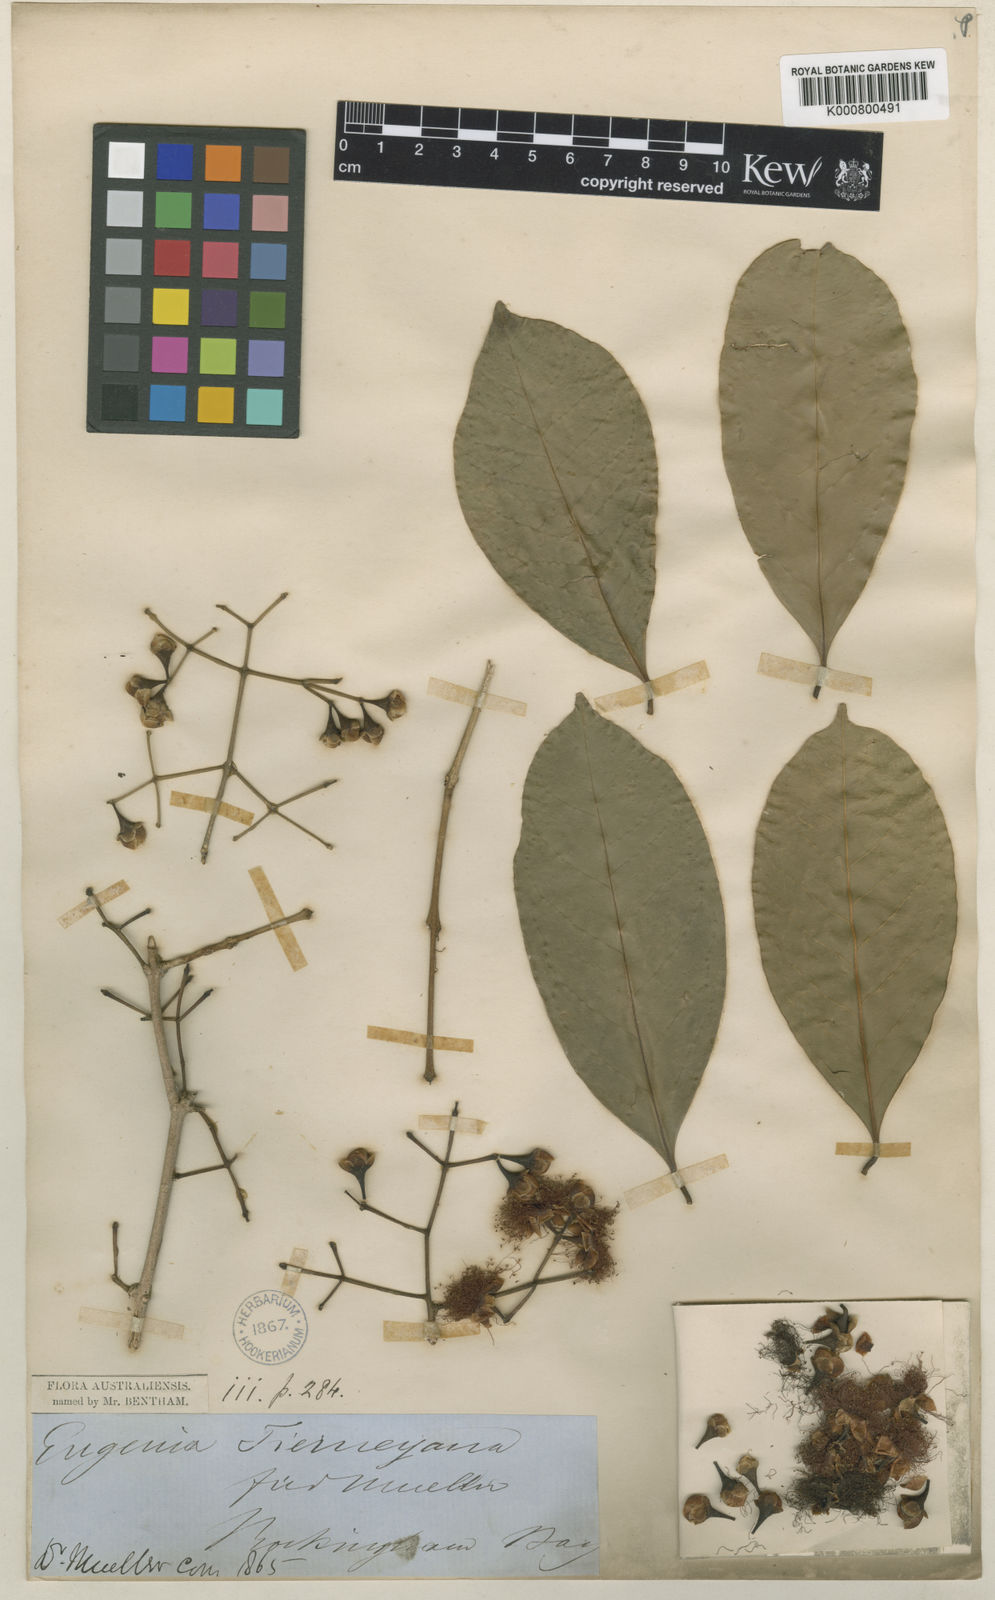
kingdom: Plantae
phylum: Tracheophyta
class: Magnoliopsida
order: Myrtales
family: Myrtaceae
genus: Syzygium
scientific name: Syzygium tierneyanum
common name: River-cherry
